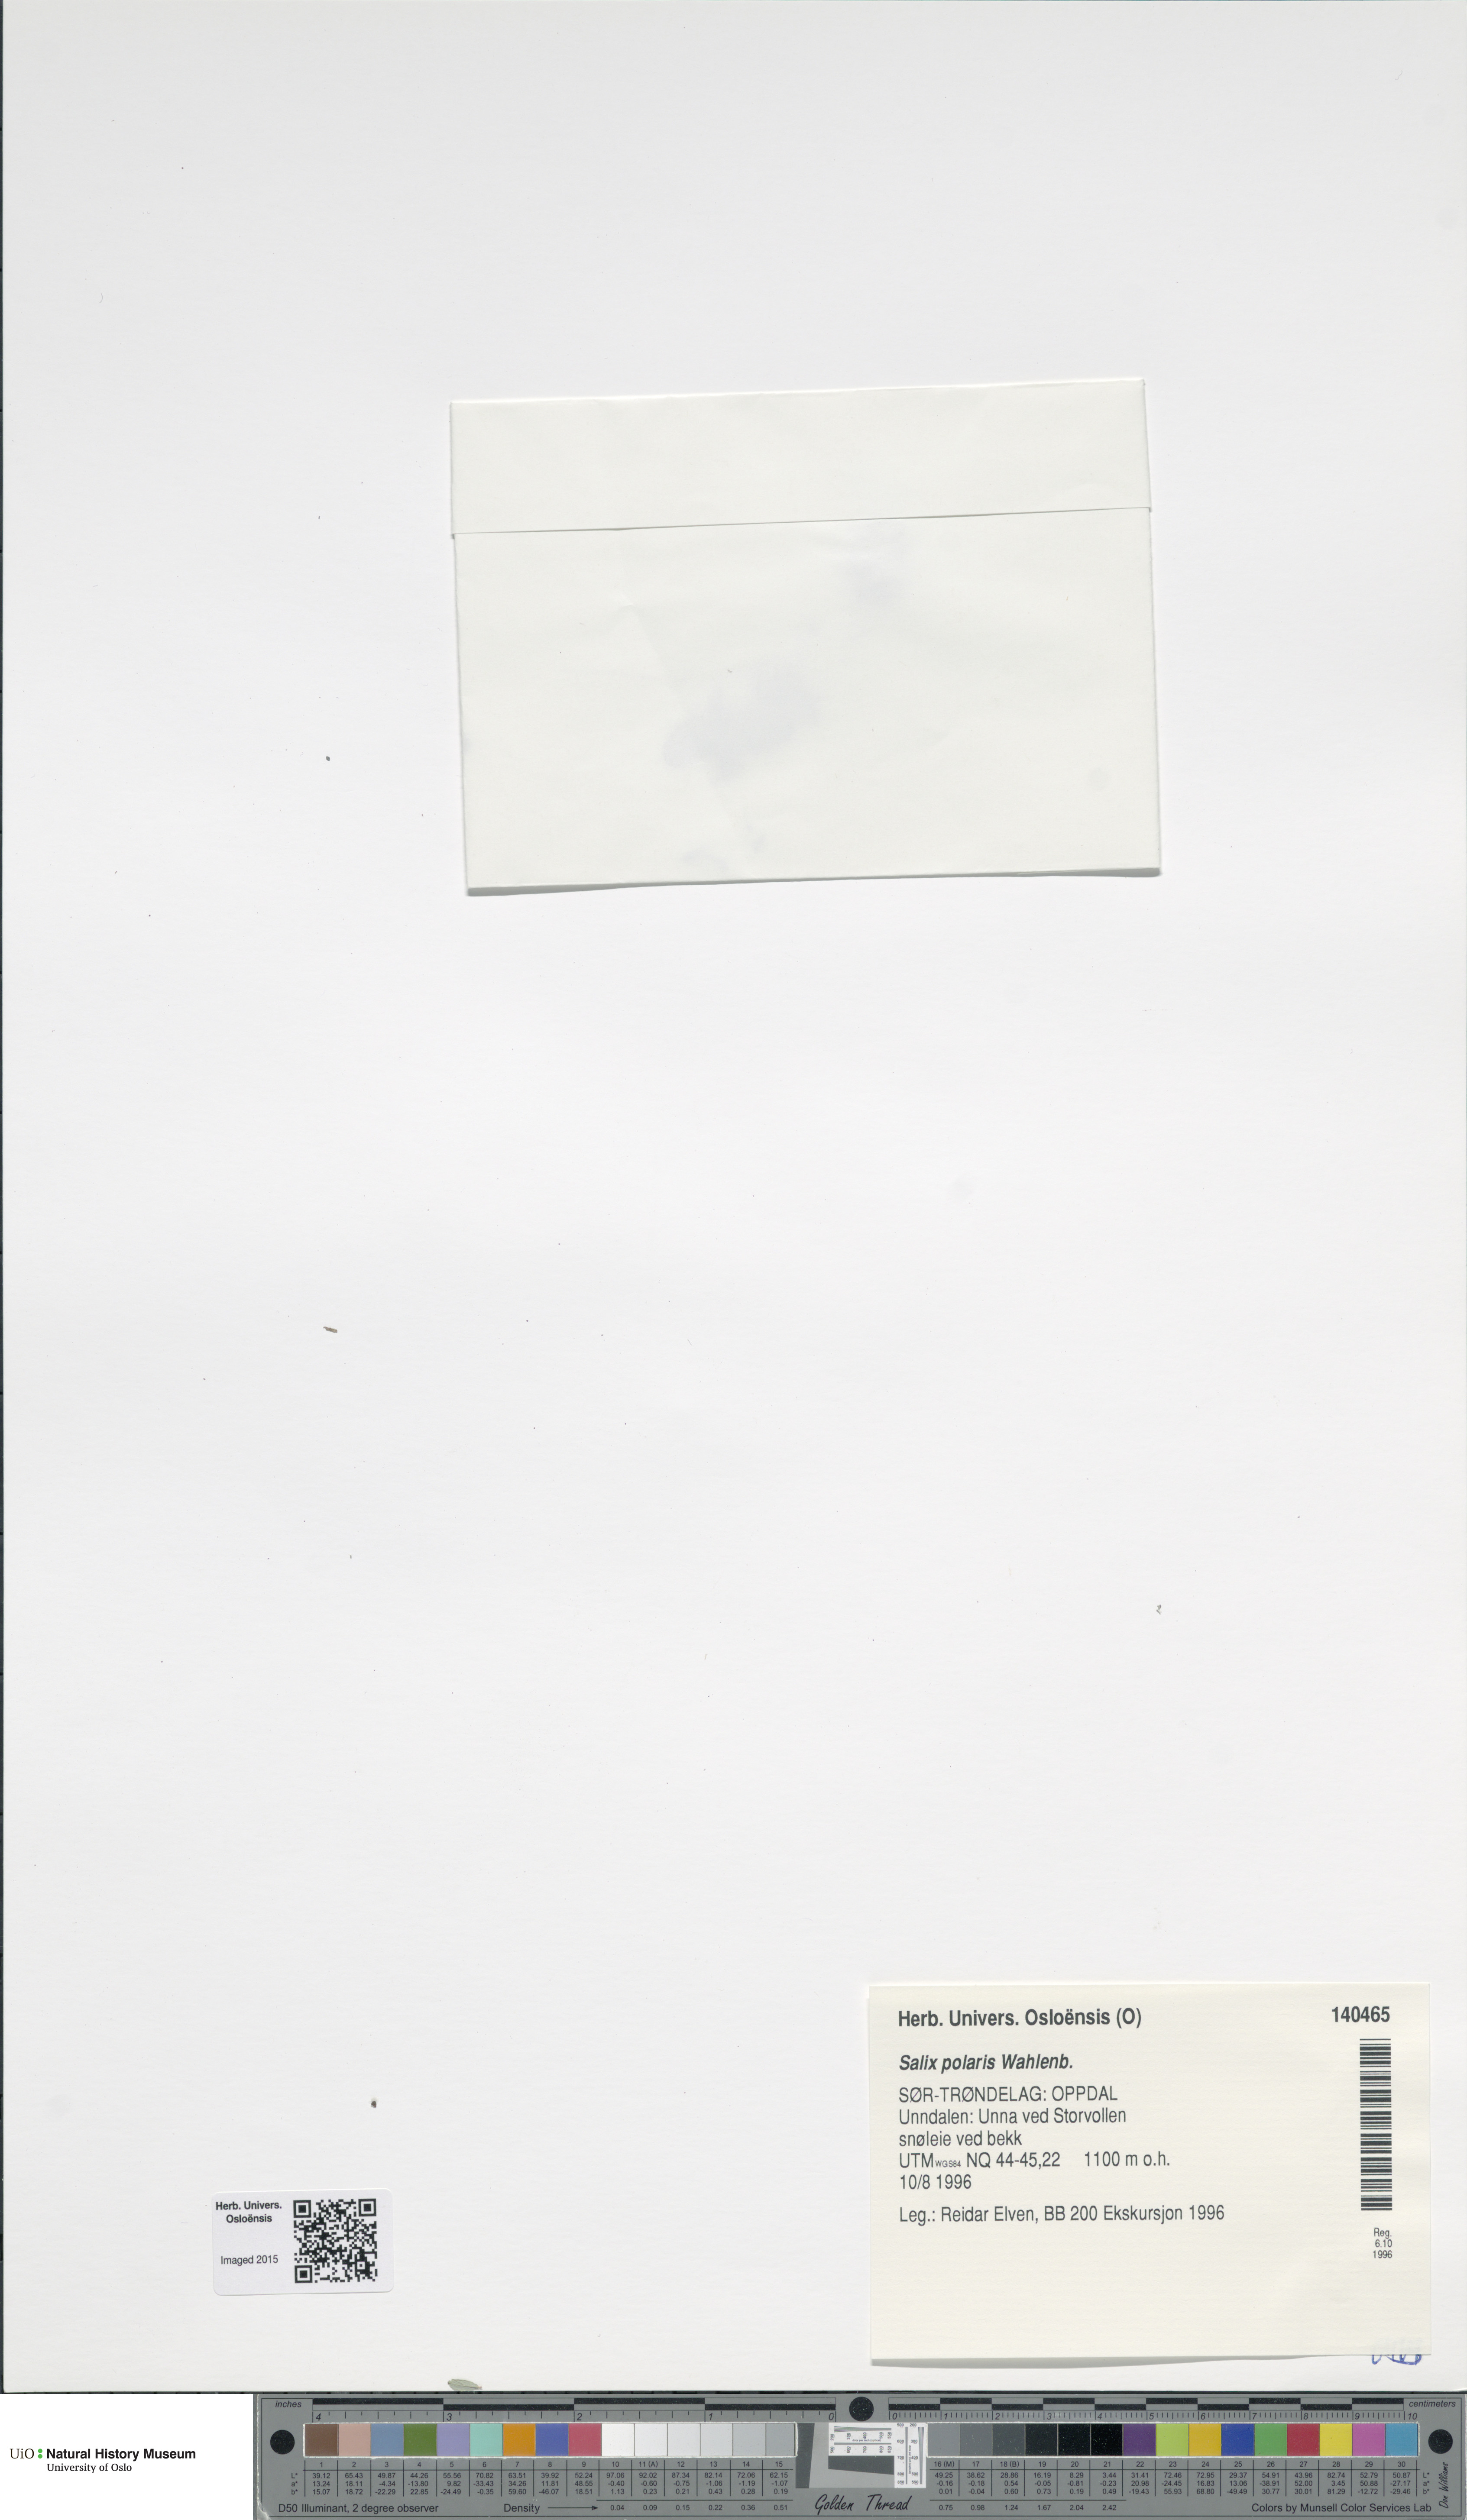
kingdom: Plantae
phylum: Tracheophyta
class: Magnoliopsida
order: Malpighiales
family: Salicaceae
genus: Salix
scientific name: Salix polaris
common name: Polar willow
